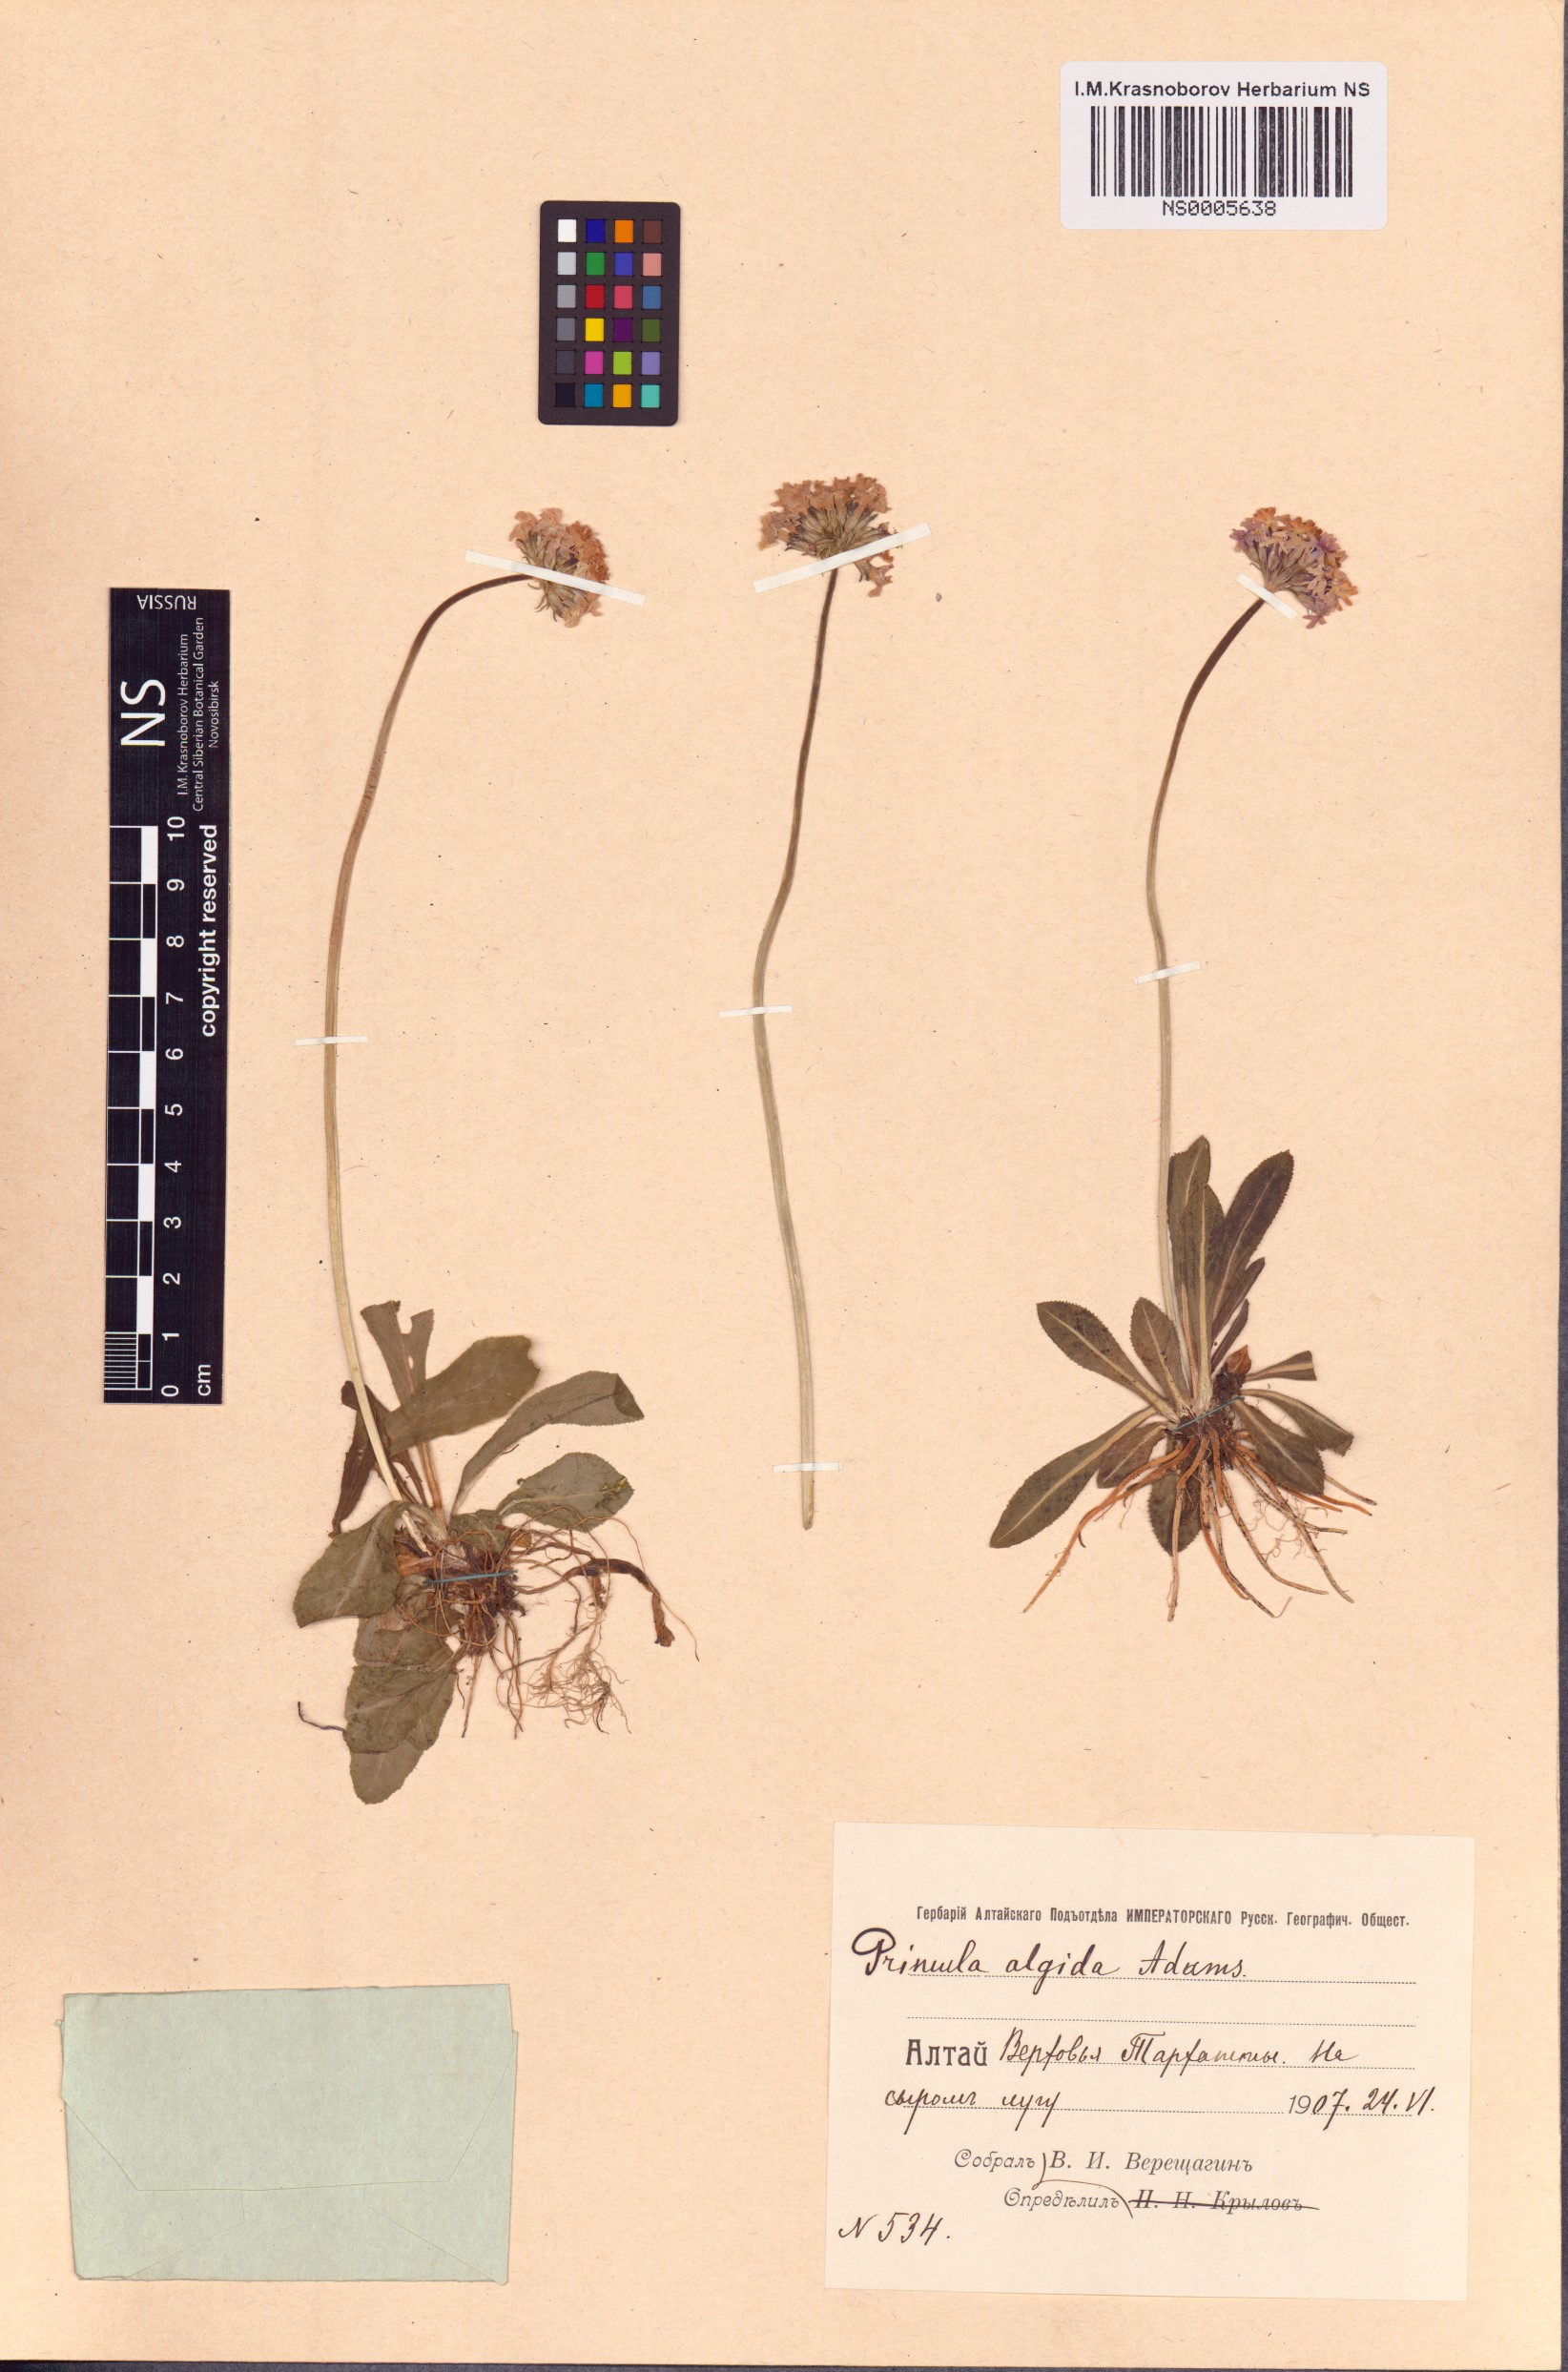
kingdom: Plantae
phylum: Tracheophyta
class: Magnoliopsida
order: Ericales
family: Primulaceae
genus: Primula
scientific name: Primula algida
